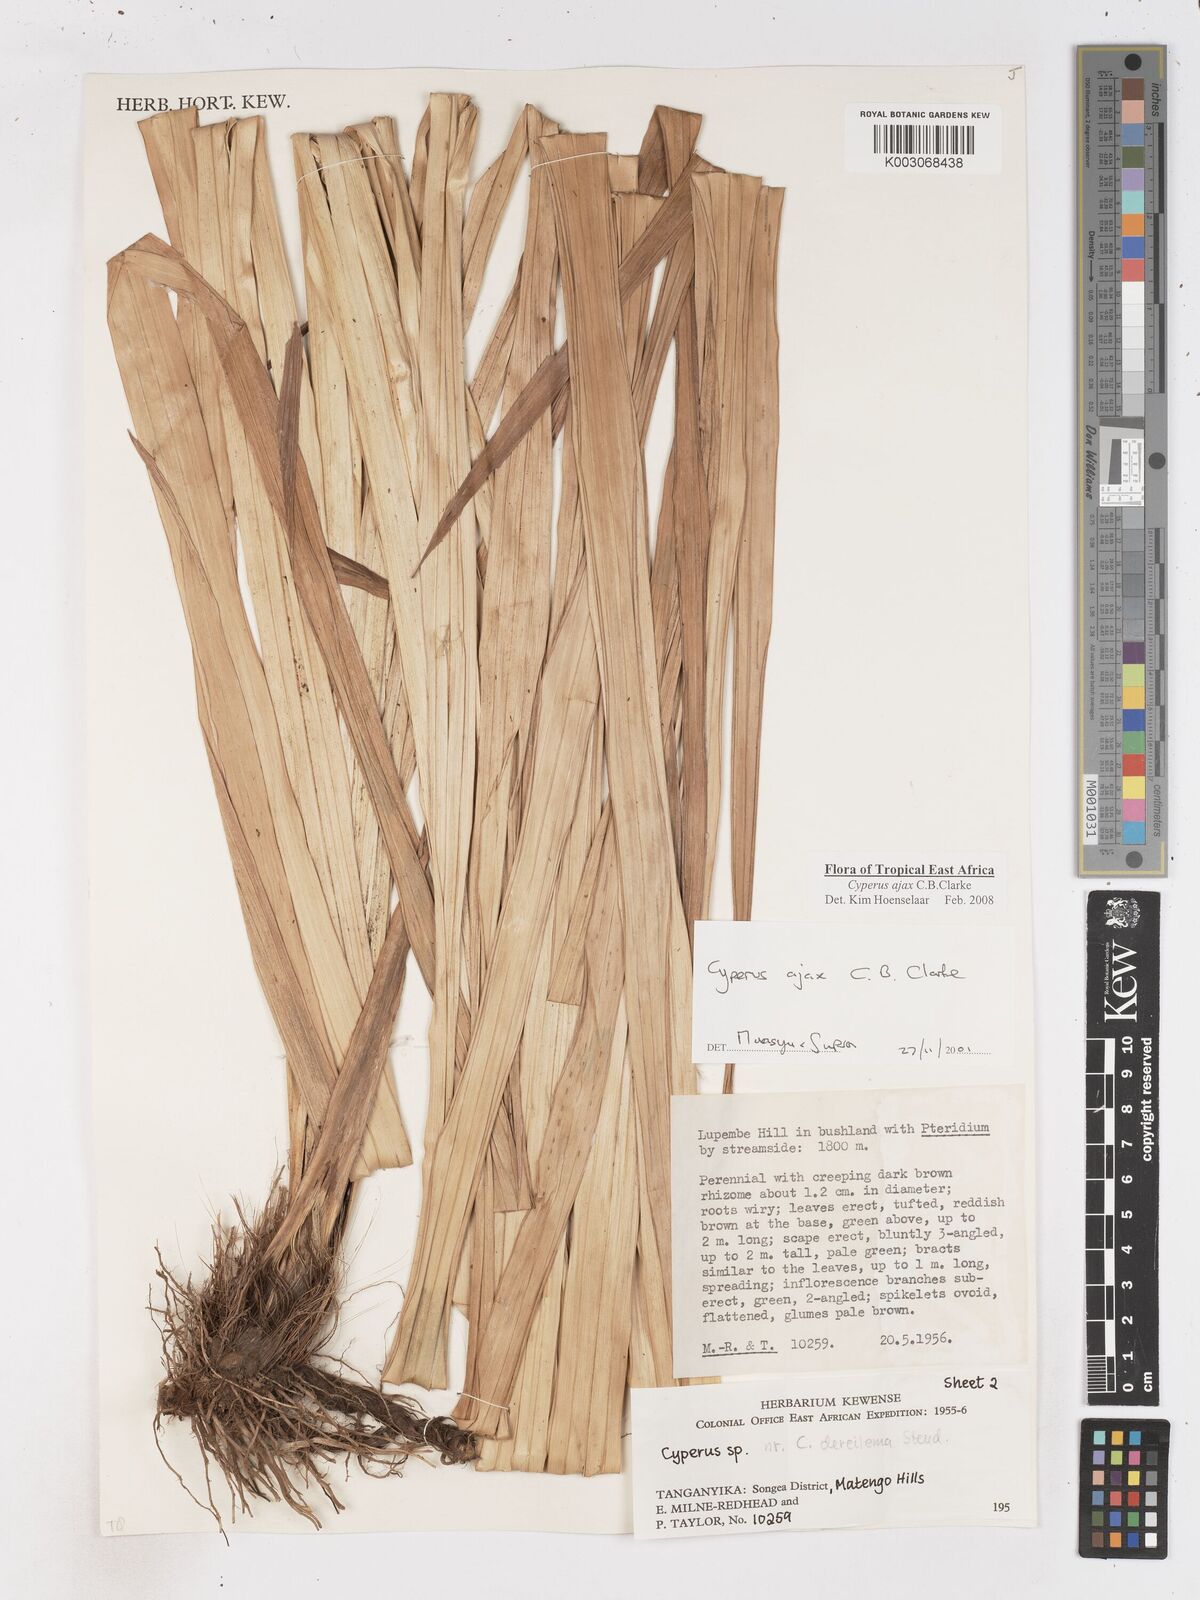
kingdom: Plantae
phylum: Tracheophyta
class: Liliopsida
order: Poales
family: Cyperaceae
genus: Cyperus
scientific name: Cyperus ajax
